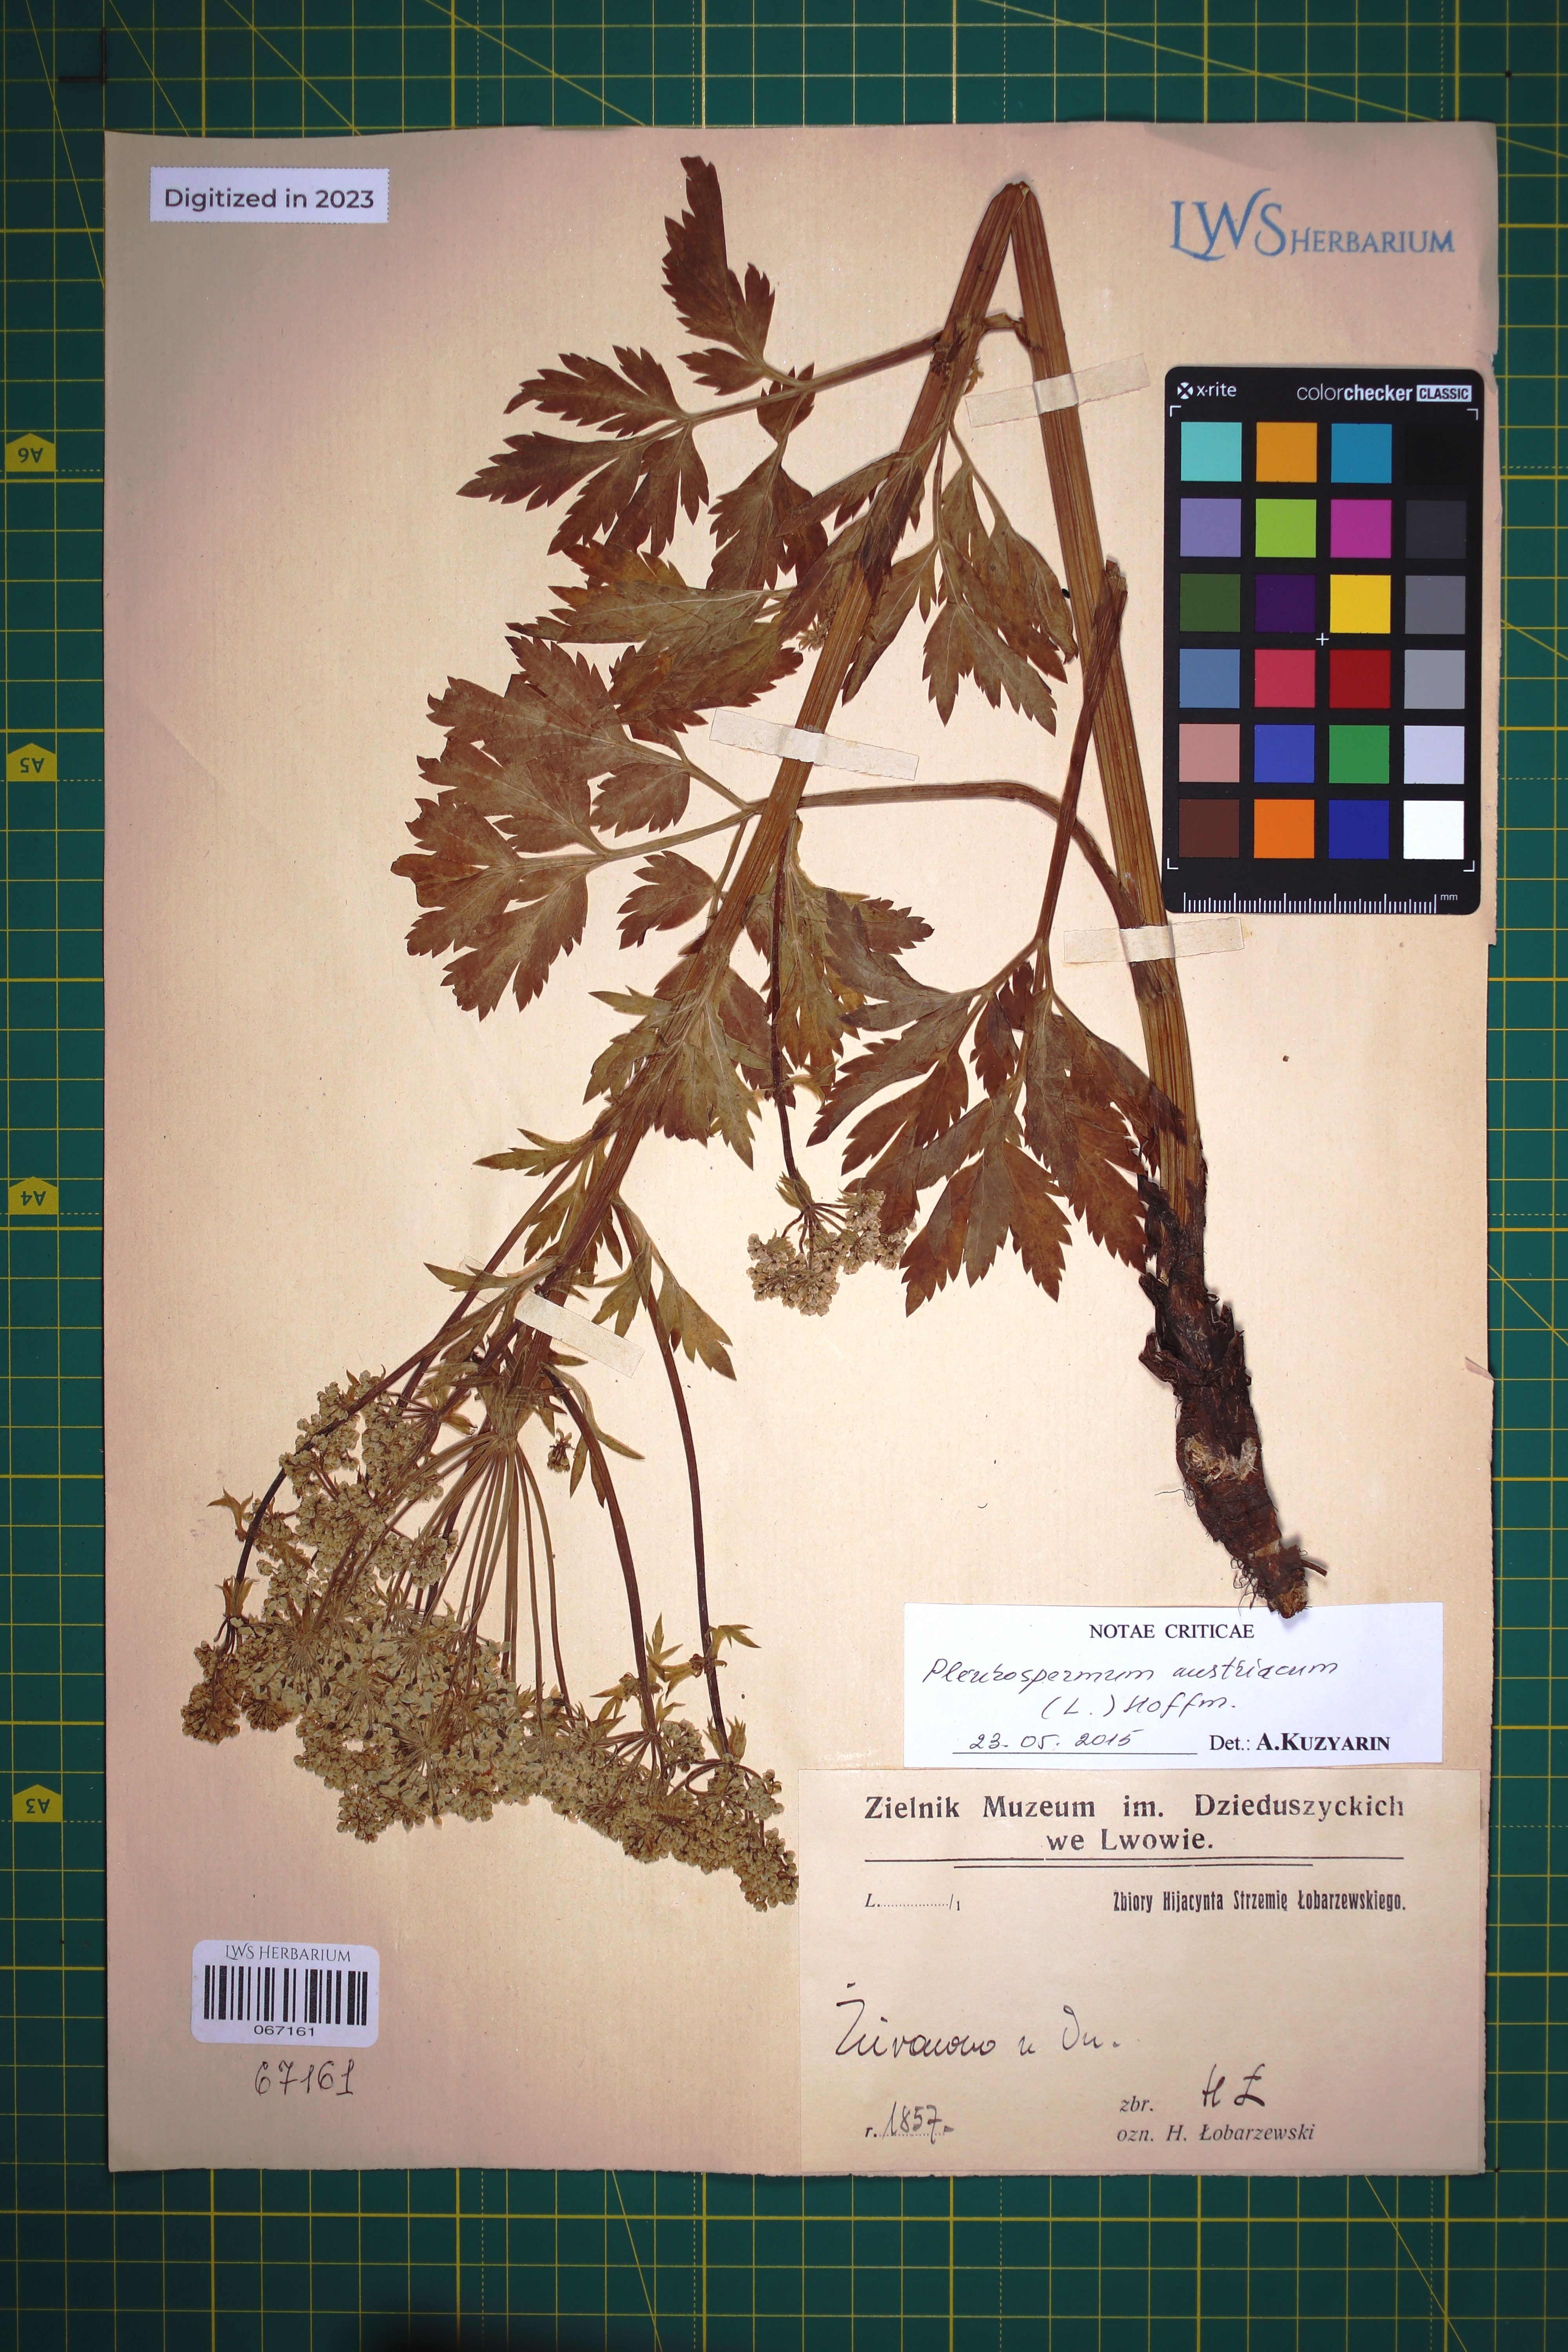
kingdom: Plantae
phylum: Tracheophyta
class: Magnoliopsida
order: Apiales
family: Apiaceae
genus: Pleurospermum
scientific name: Pleurospermum austriacum
